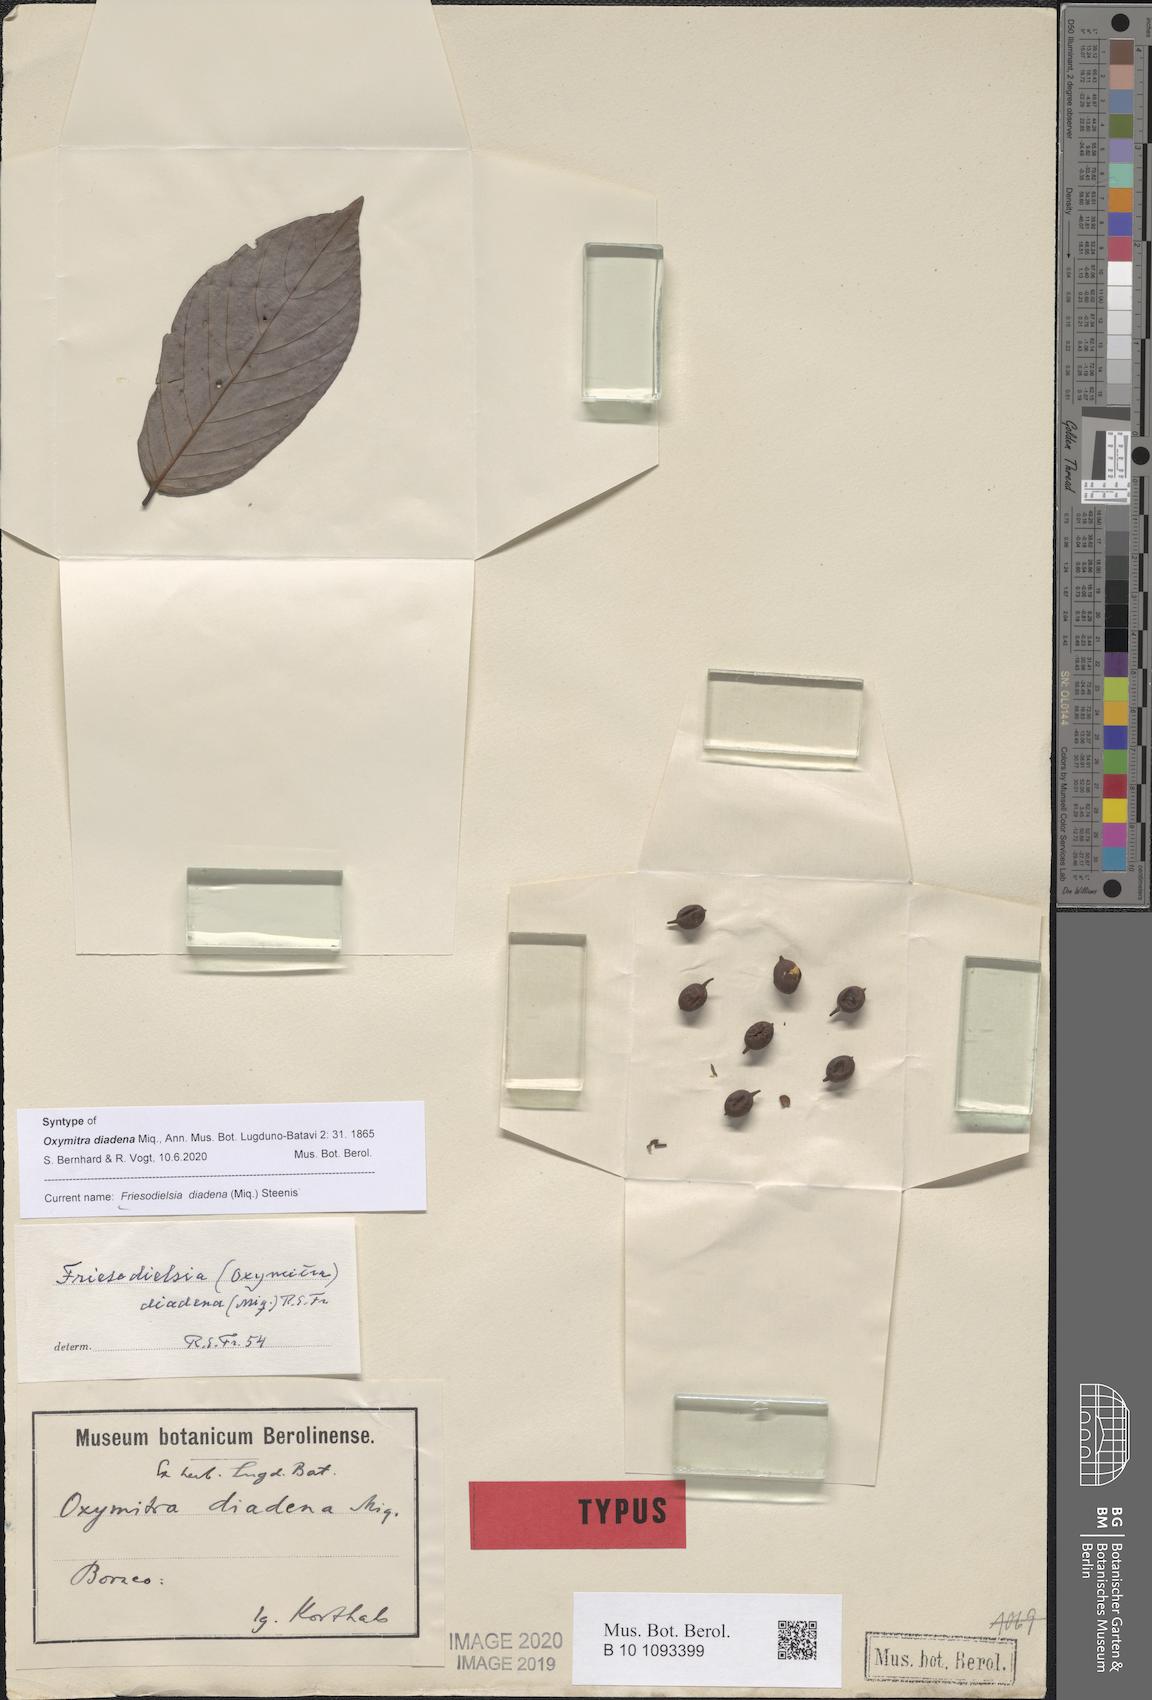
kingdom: Plantae
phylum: Tracheophyta
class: Magnoliopsida
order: Magnoliales
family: Annonaceae
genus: Friesodielsia
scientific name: Friesodielsia glauca
